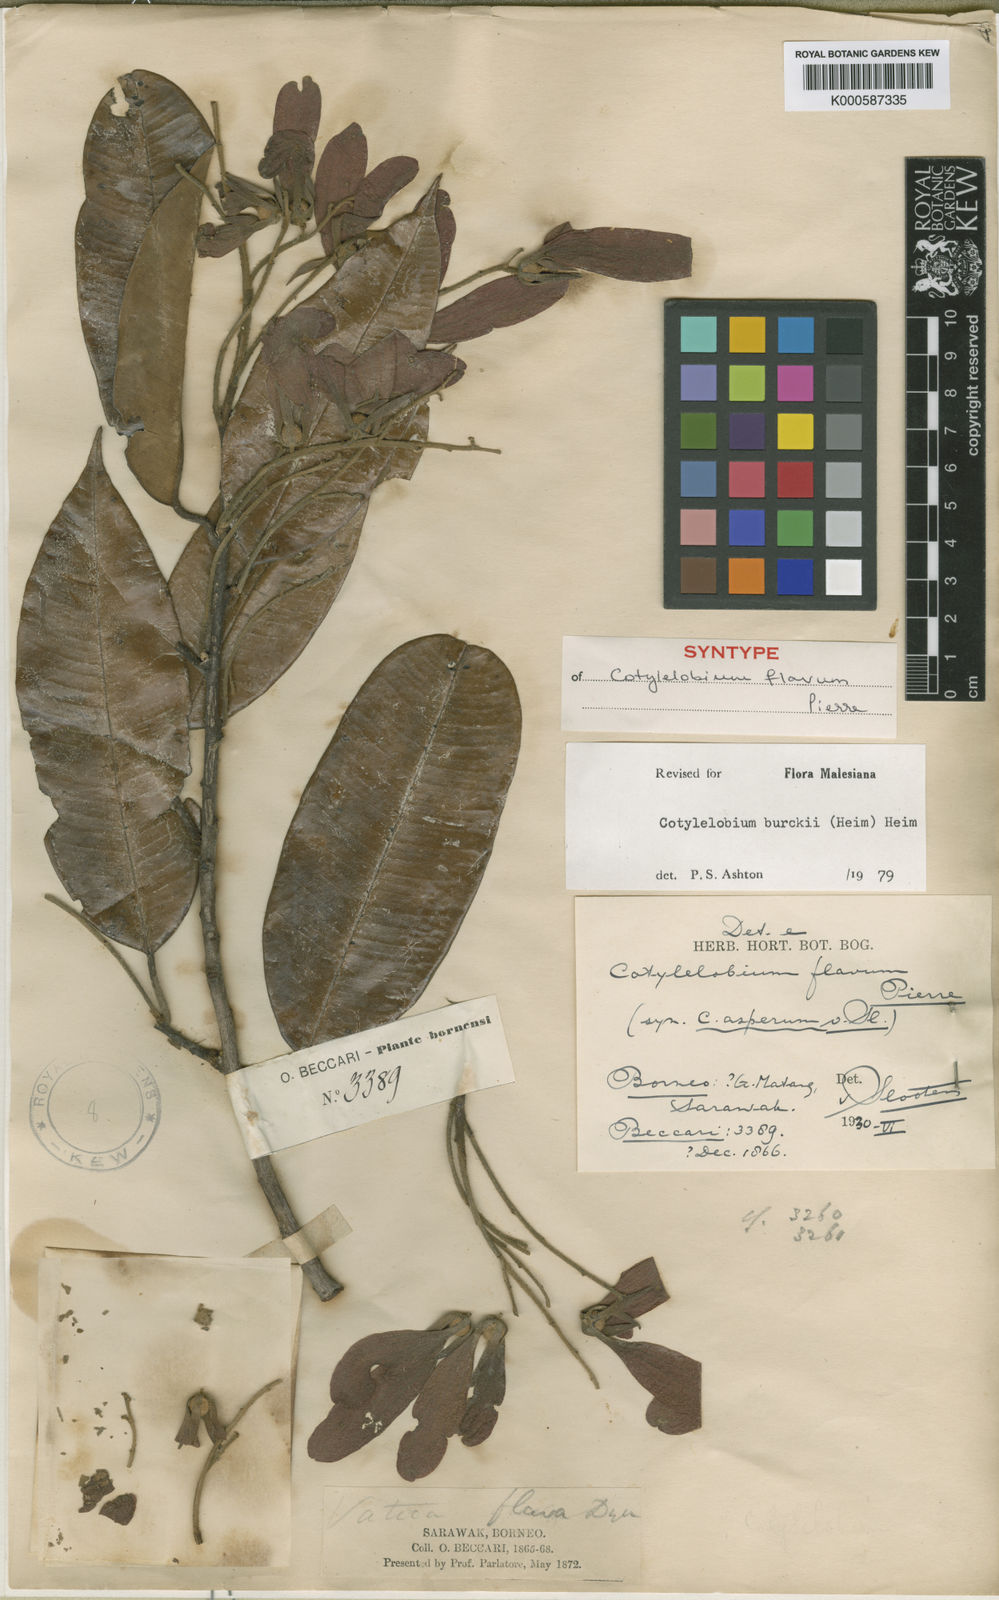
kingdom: Plantae
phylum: Tracheophyta
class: Magnoliopsida
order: Malvales
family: Dipterocarpaceae
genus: Cotylelobium
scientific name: Cotylelobium burckii
